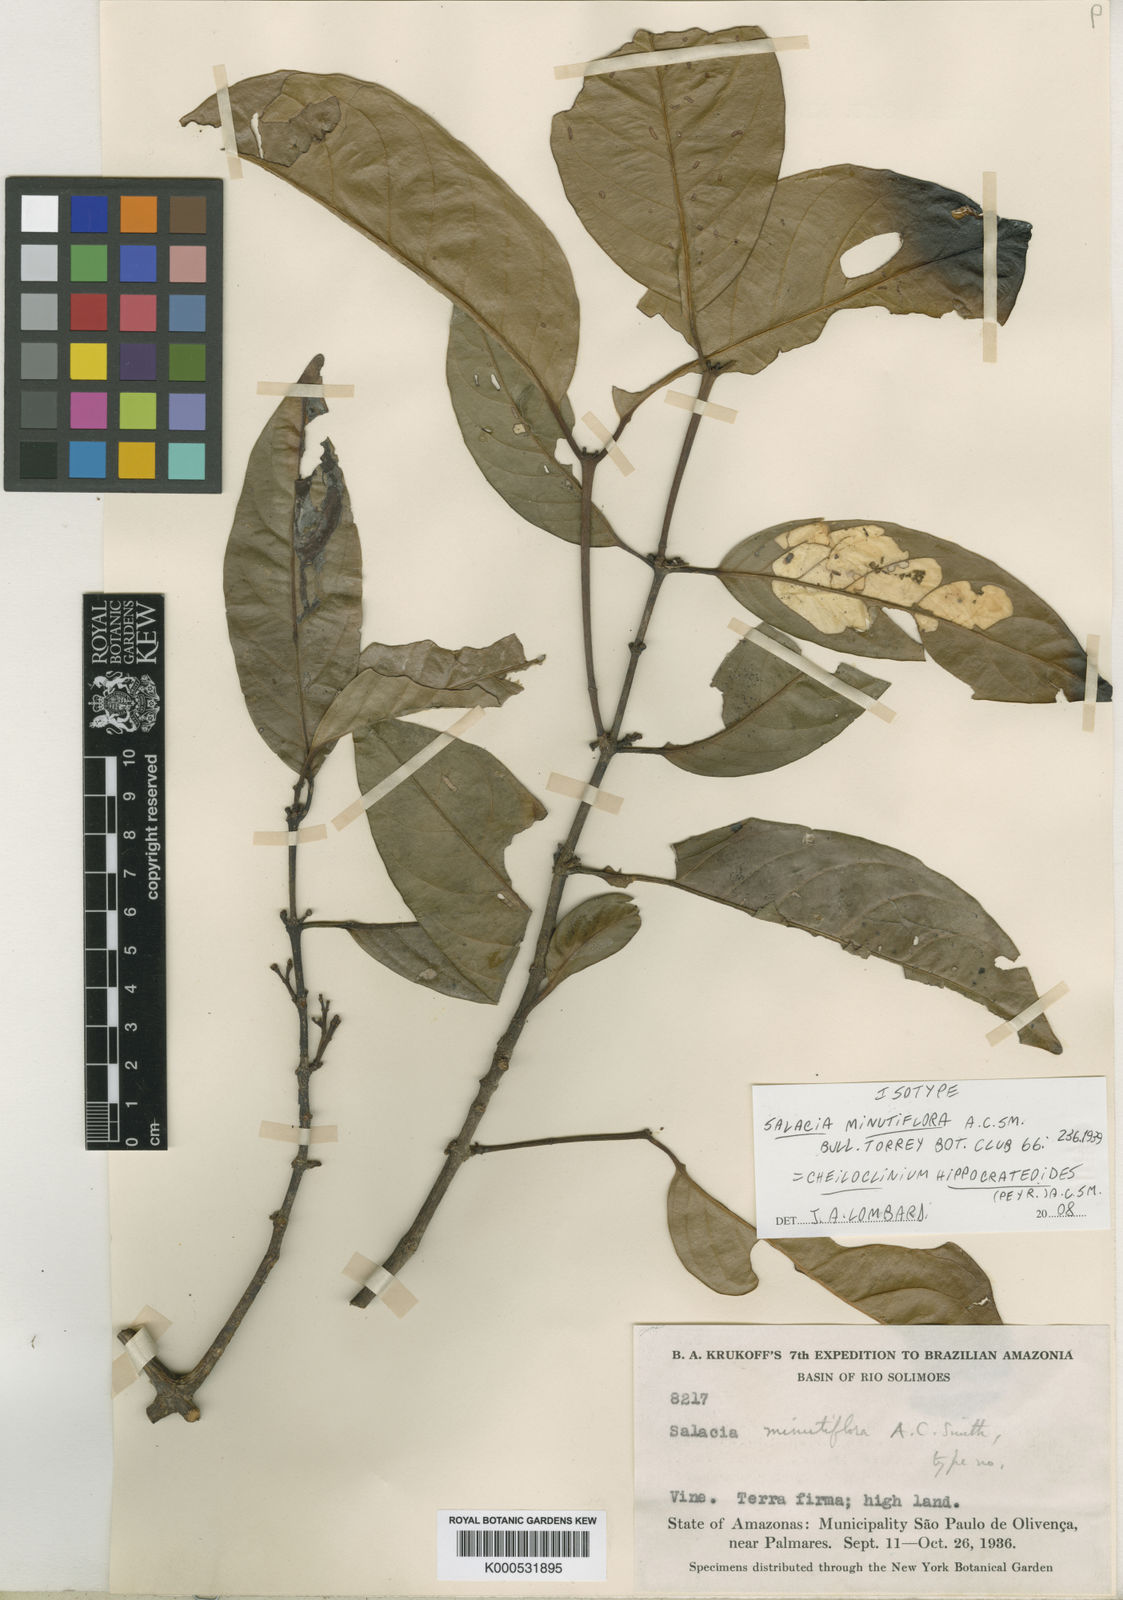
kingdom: Plantae
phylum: Tracheophyta
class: Magnoliopsida
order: Celastrales
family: Celastraceae
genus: Cheiloclinium
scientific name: Cheiloclinium hippocrateoides
